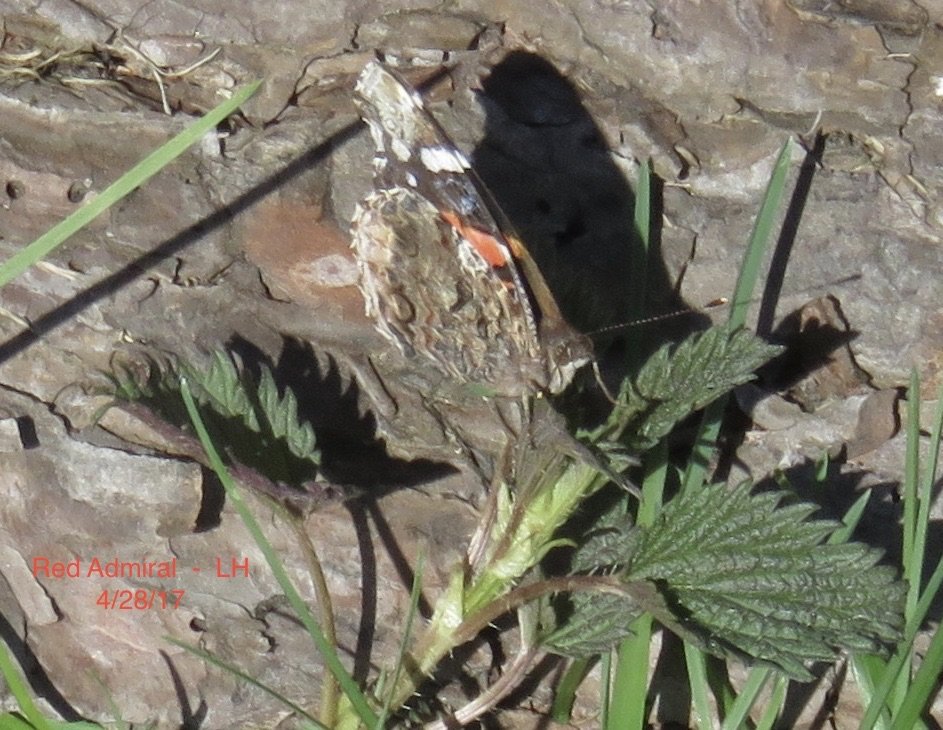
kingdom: Animalia
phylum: Arthropoda
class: Insecta
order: Lepidoptera
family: Nymphalidae
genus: Vanessa
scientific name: Vanessa atalanta
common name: Red Admiral
